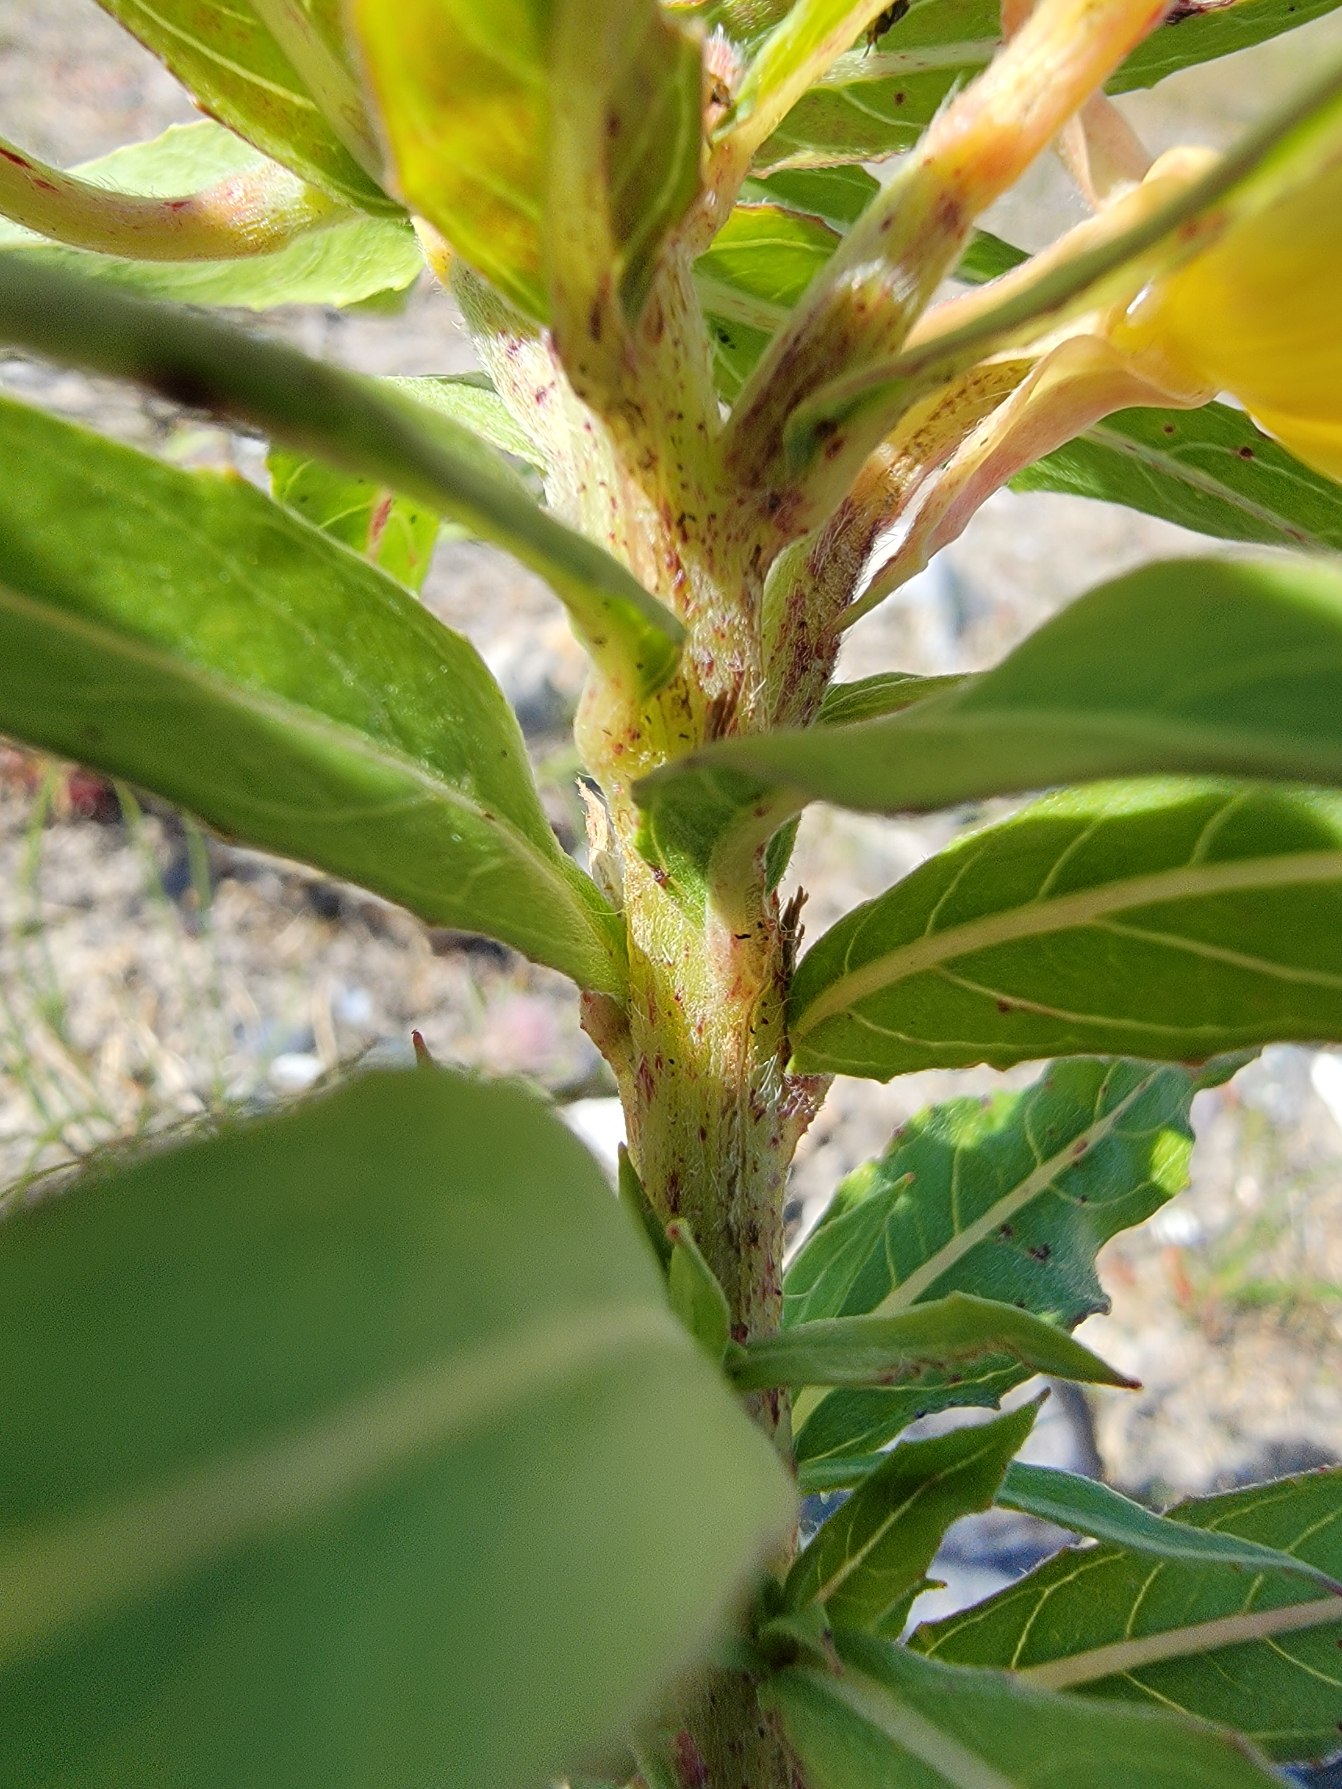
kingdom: Plantae
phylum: Tracheophyta
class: Magnoliopsida
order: Myrtales
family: Onagraceae
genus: Oenothera
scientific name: Oenothera ammophila
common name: Klit-natlys
